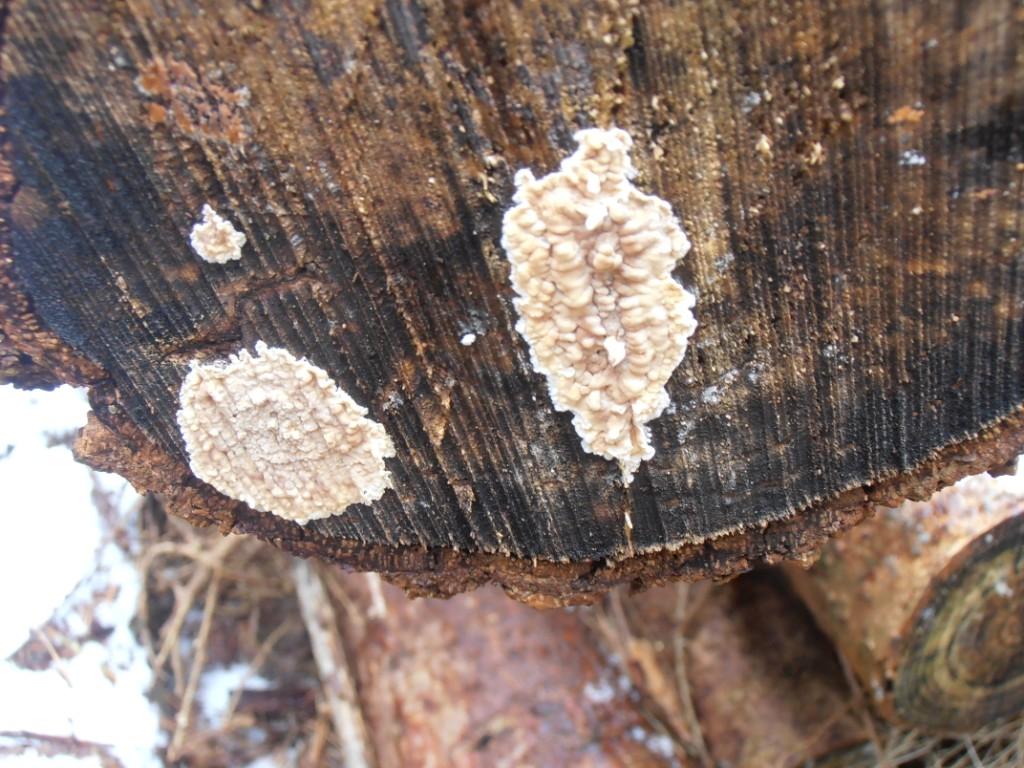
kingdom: Fungi
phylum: Basidiomycota
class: Agaricomycetes
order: Agaricales
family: Physalacriaceae
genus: Cylindrobasidium
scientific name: Cylindrobasidium evolvens
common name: sprækkehinde
